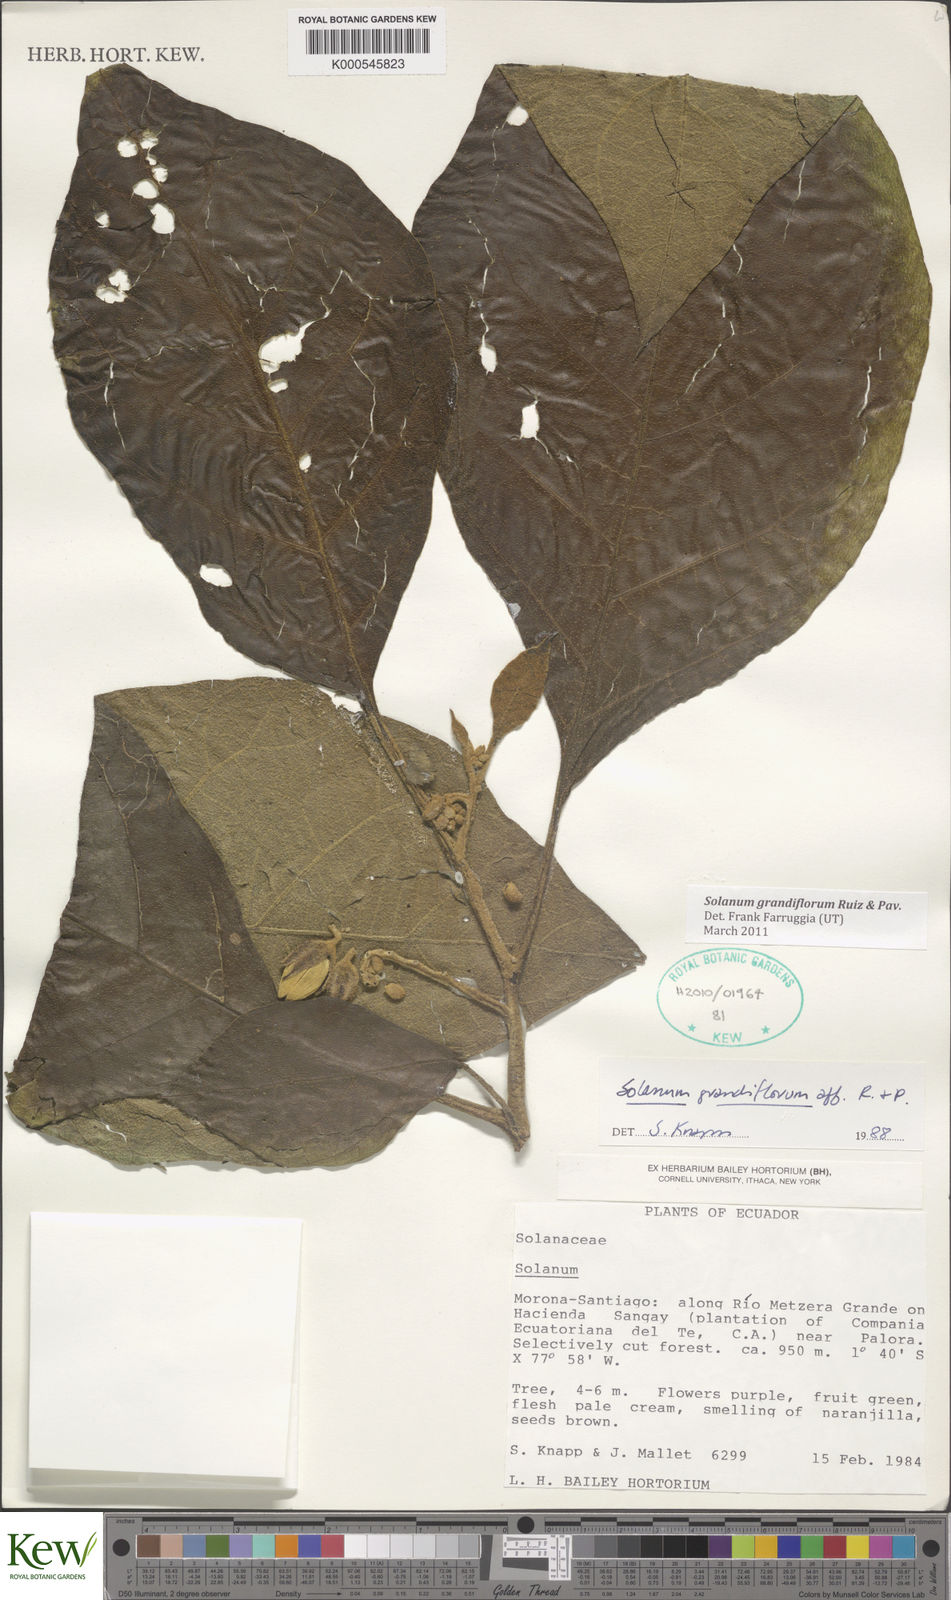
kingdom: Plantae
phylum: Tracheophyta
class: Magnoliopsida
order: Solanales
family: Solanaceae
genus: Solanum
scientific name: Solanum grandiflorum
